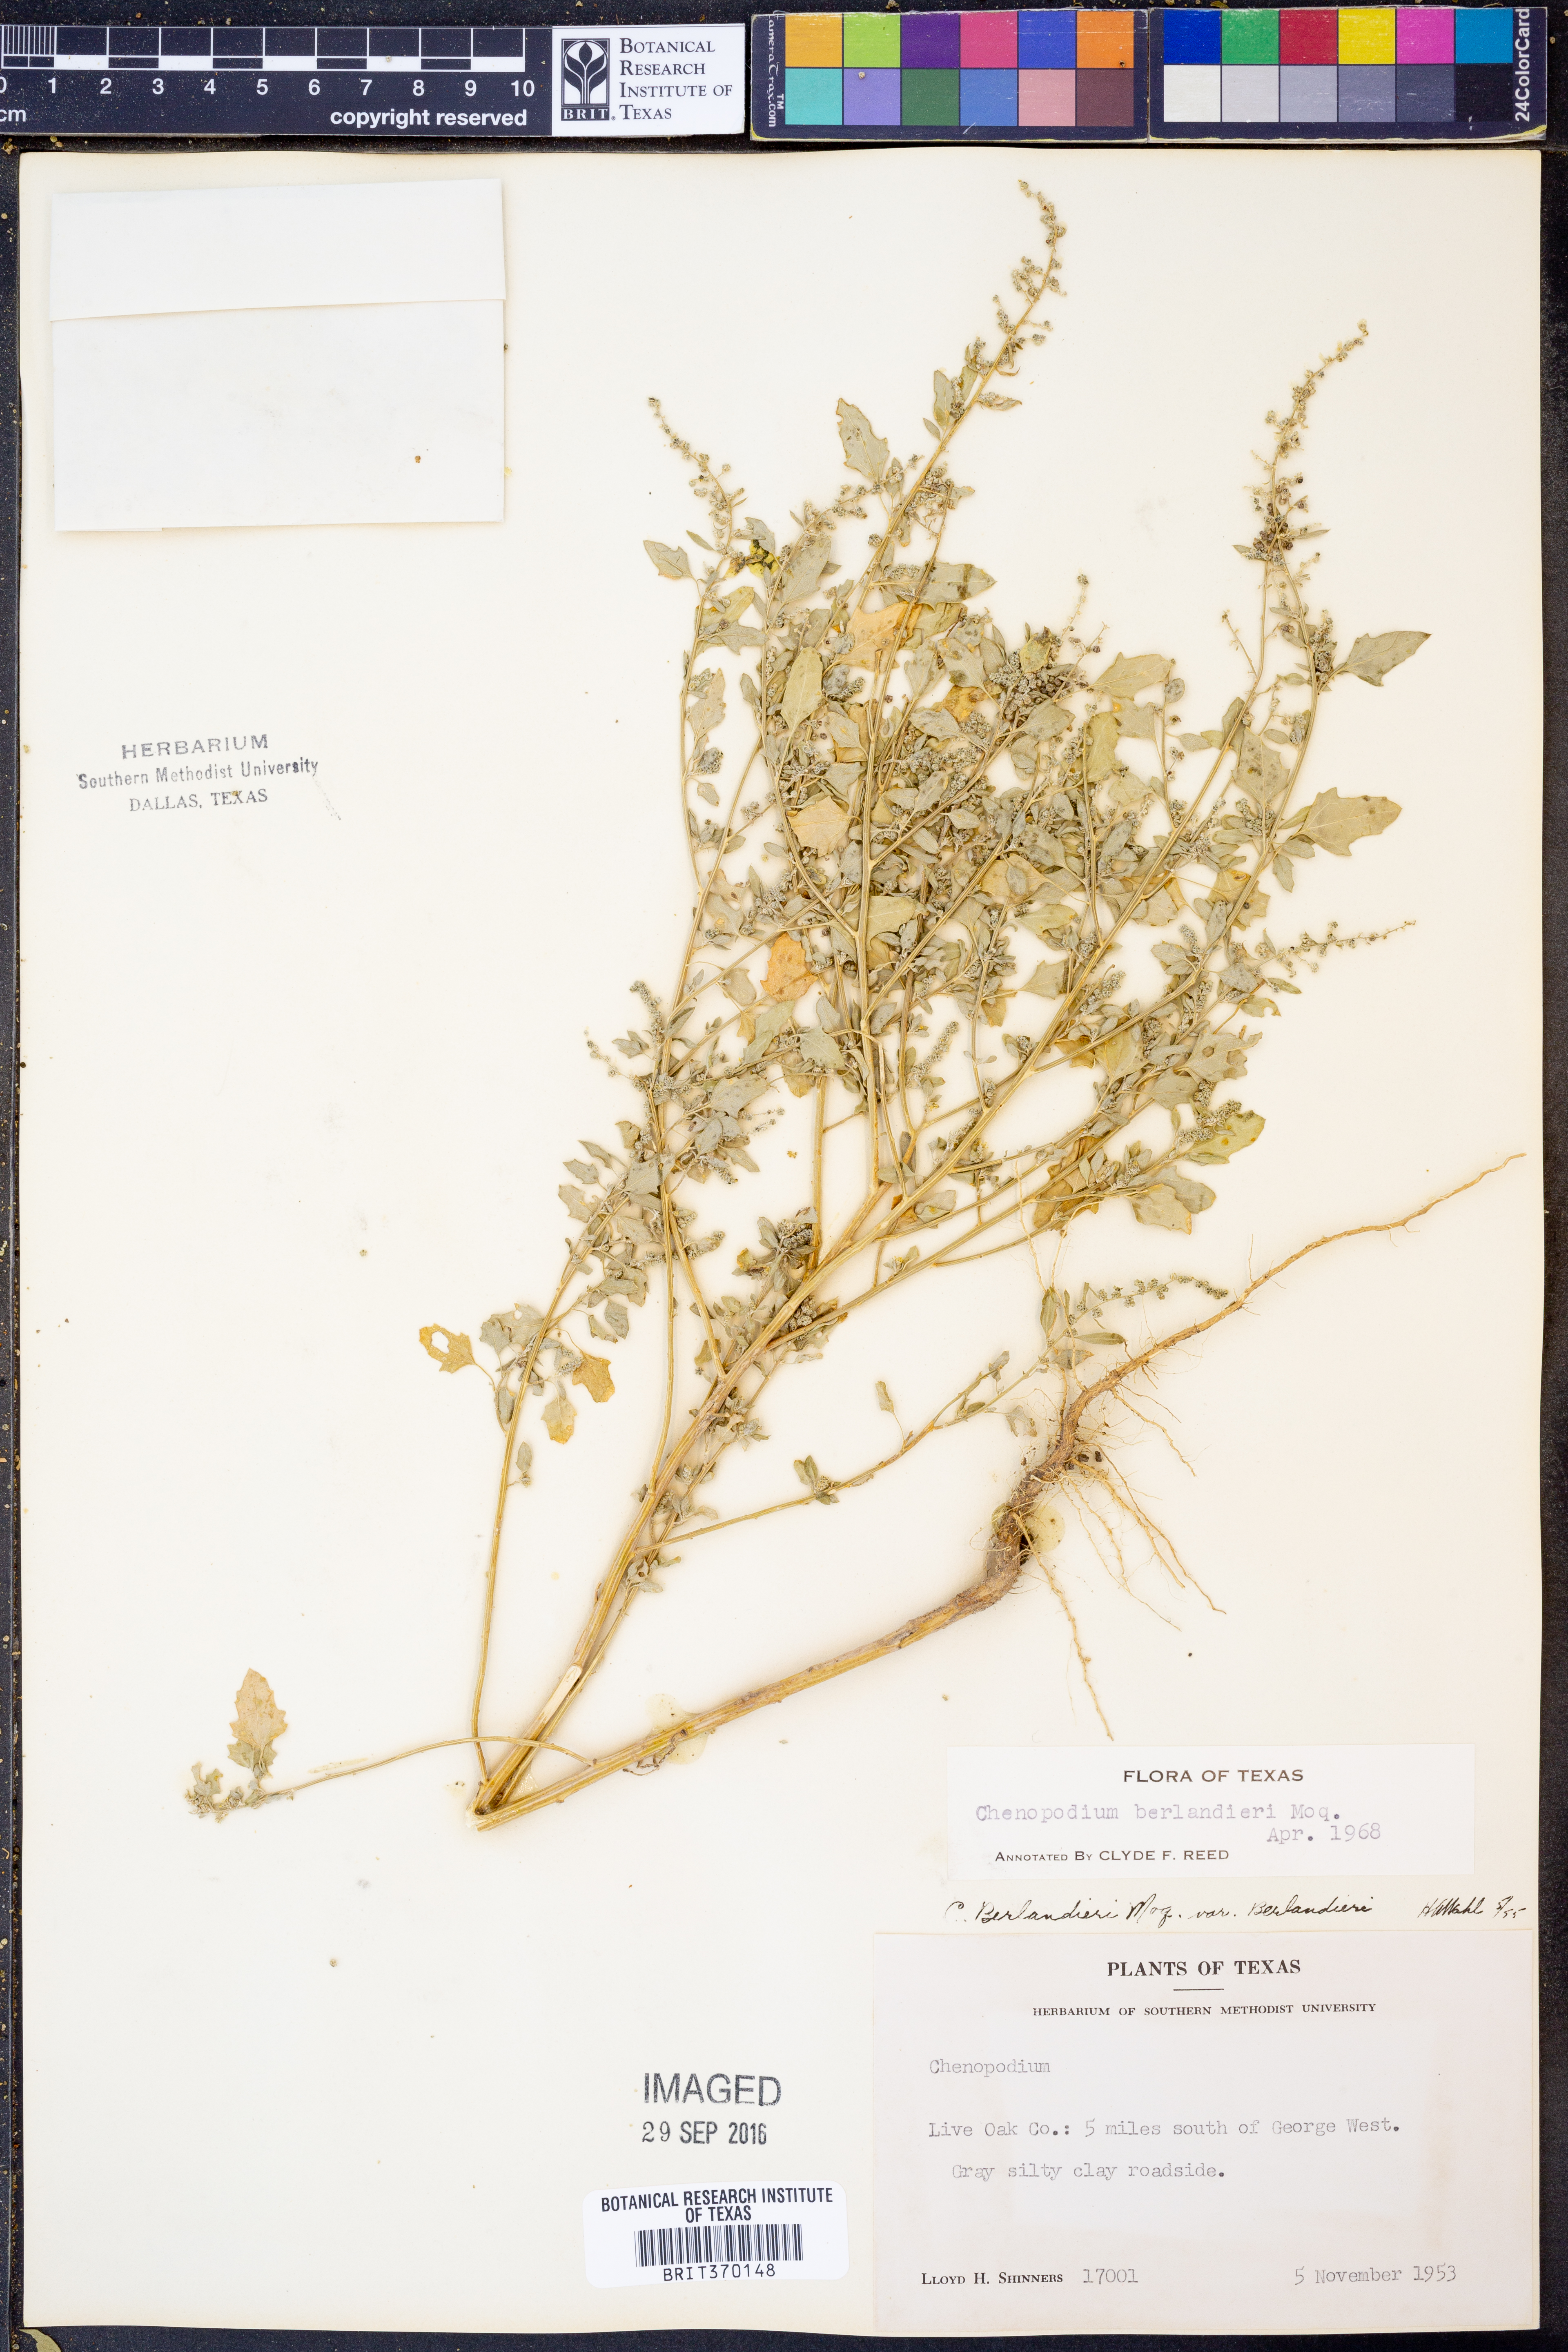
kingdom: Plantae
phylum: Tracheophyta
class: Magnoliopsida
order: Caryophyllales
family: Amaranthaceae
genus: Chenopodium
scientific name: Chenopodium berlandieri
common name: Pit-seed goosefoot
